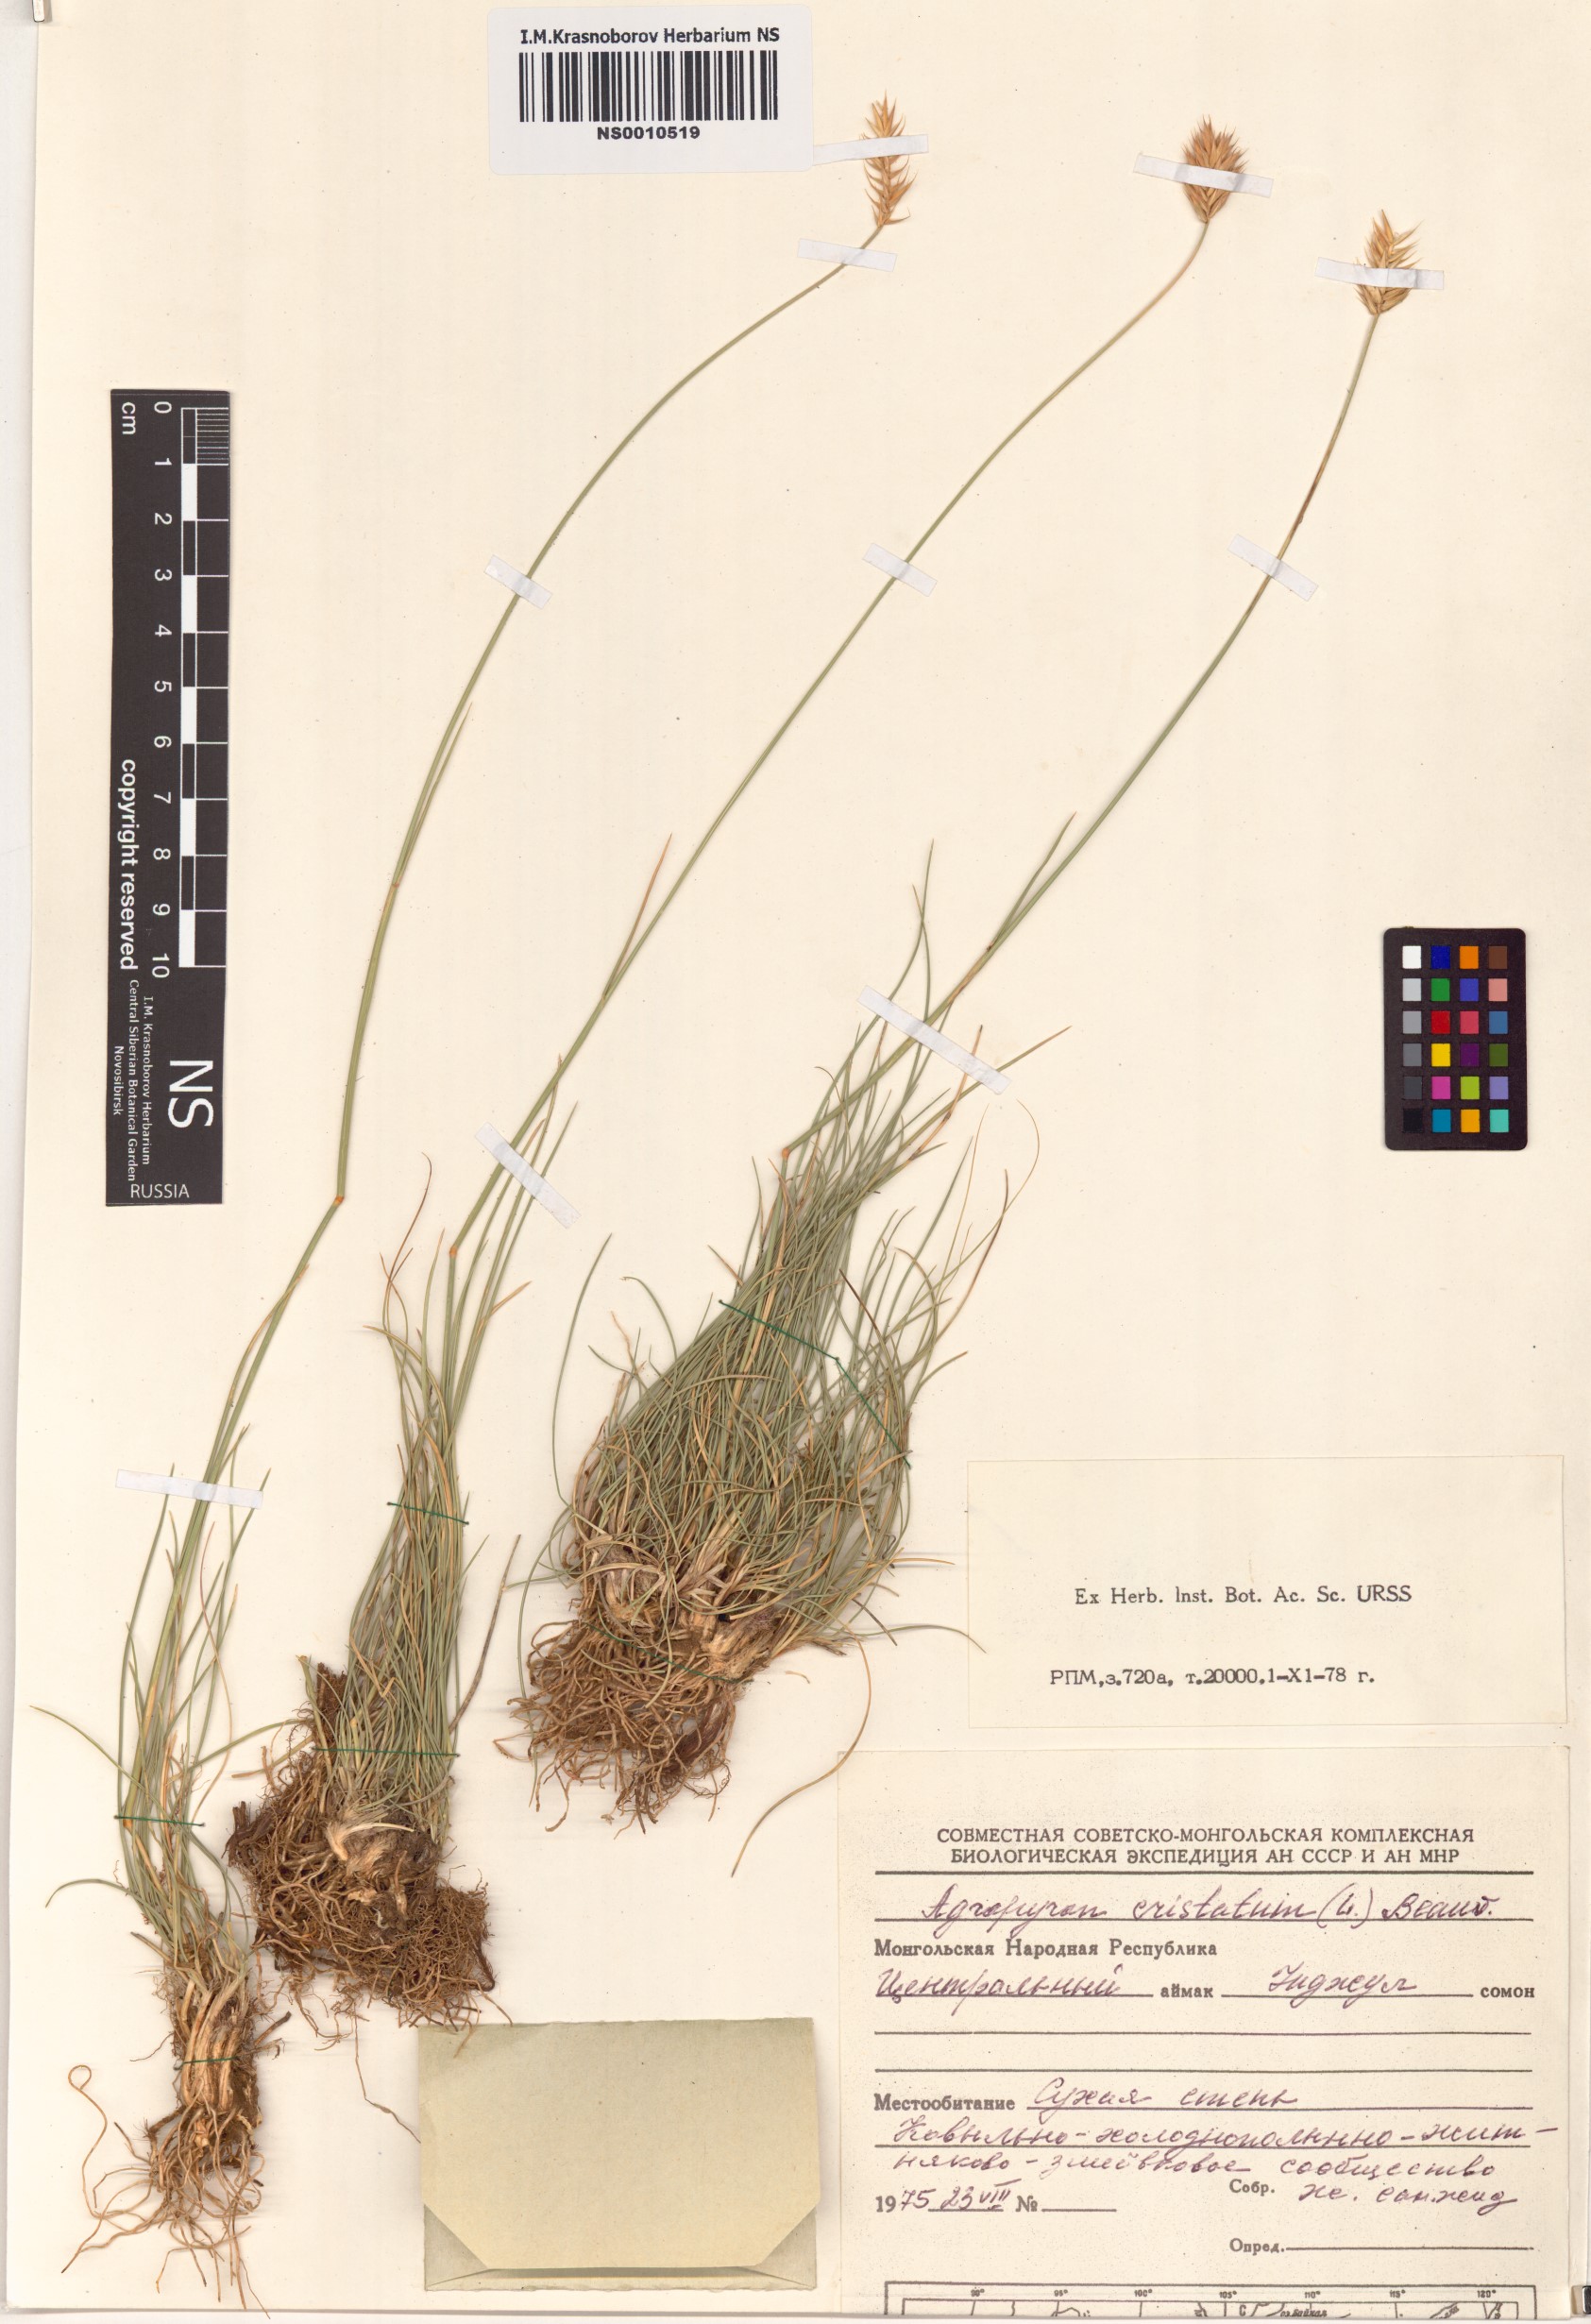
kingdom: Plantae
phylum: Tracheophyta
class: Liliopsida
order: Poales
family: Poaceae
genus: Agropyron
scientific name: Agropyron cristatum
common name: Crested wheatgrass
